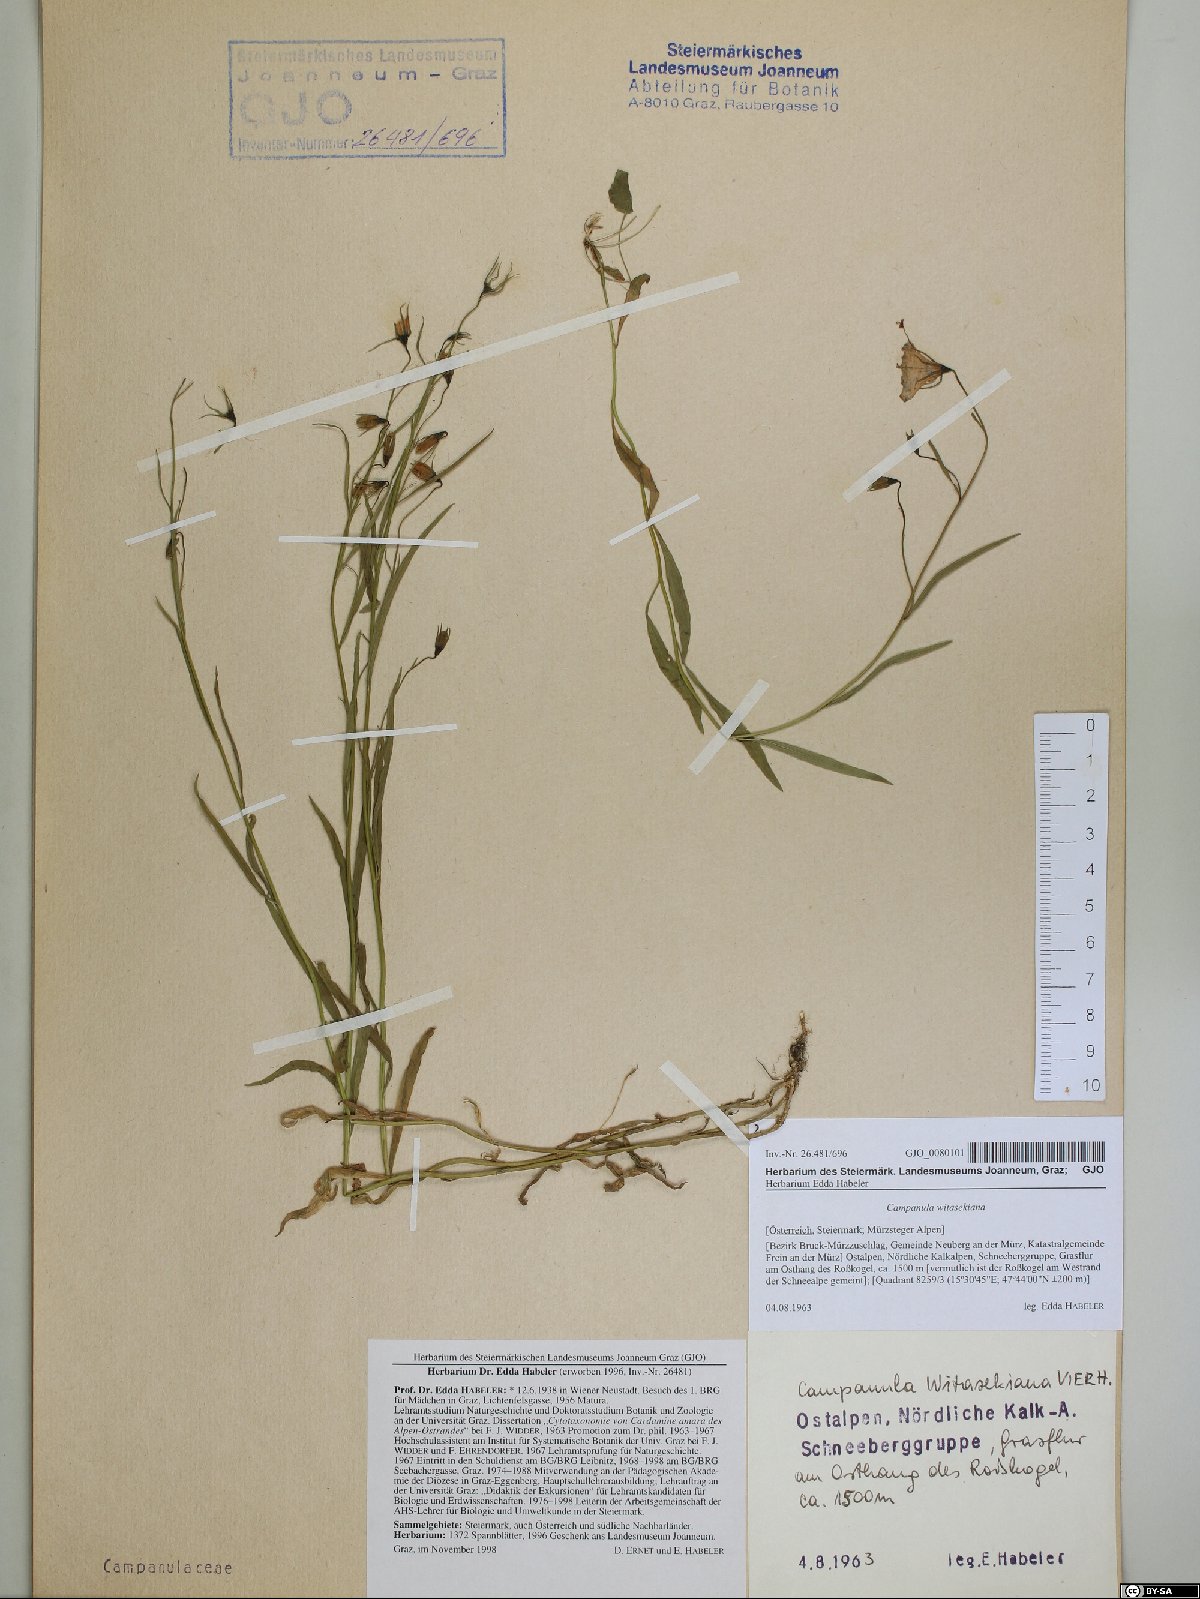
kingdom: Plantae
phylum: Tracheophyta
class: Magnoliopsida
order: Asterales
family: Campanulaceae
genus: Campanula
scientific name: Campanula witasekiana
